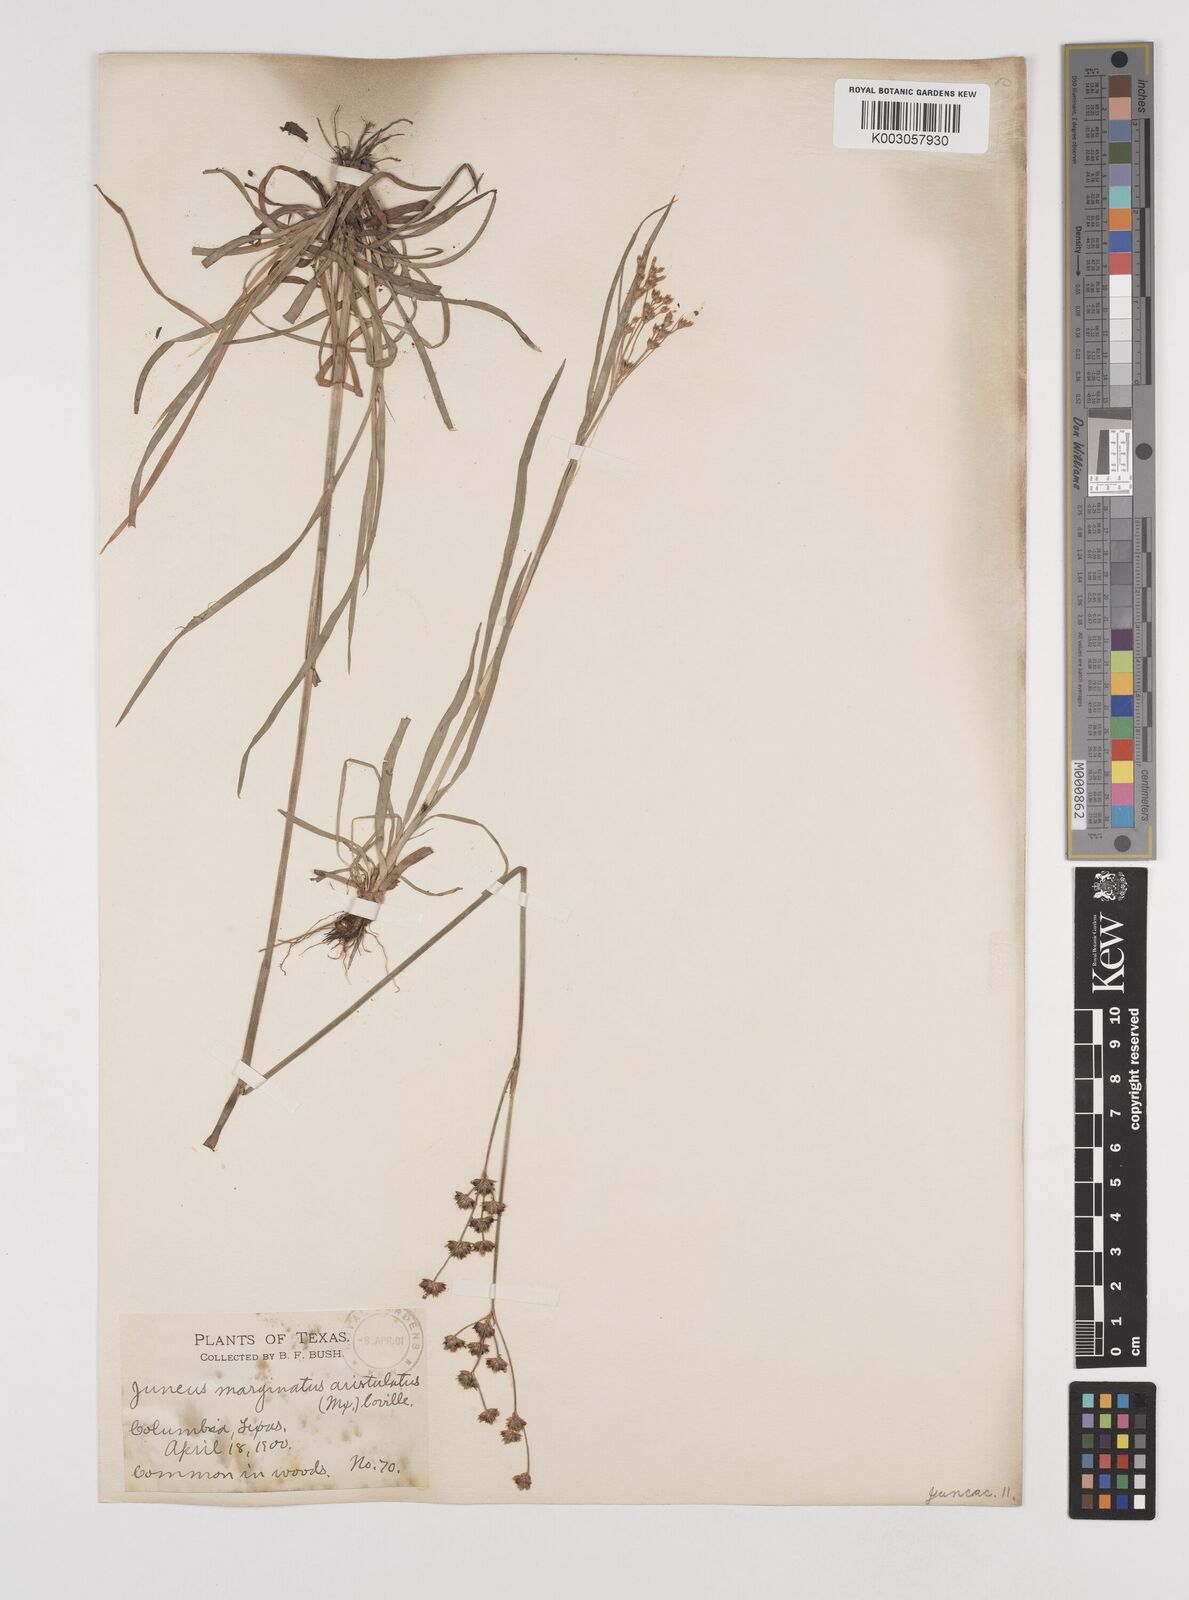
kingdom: Plantae
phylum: Tracheophyta
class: Liliopsida
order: Poales
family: Juncaceae
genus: Juncus
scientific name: Juncus marginatus
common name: Grass-leaf rush
